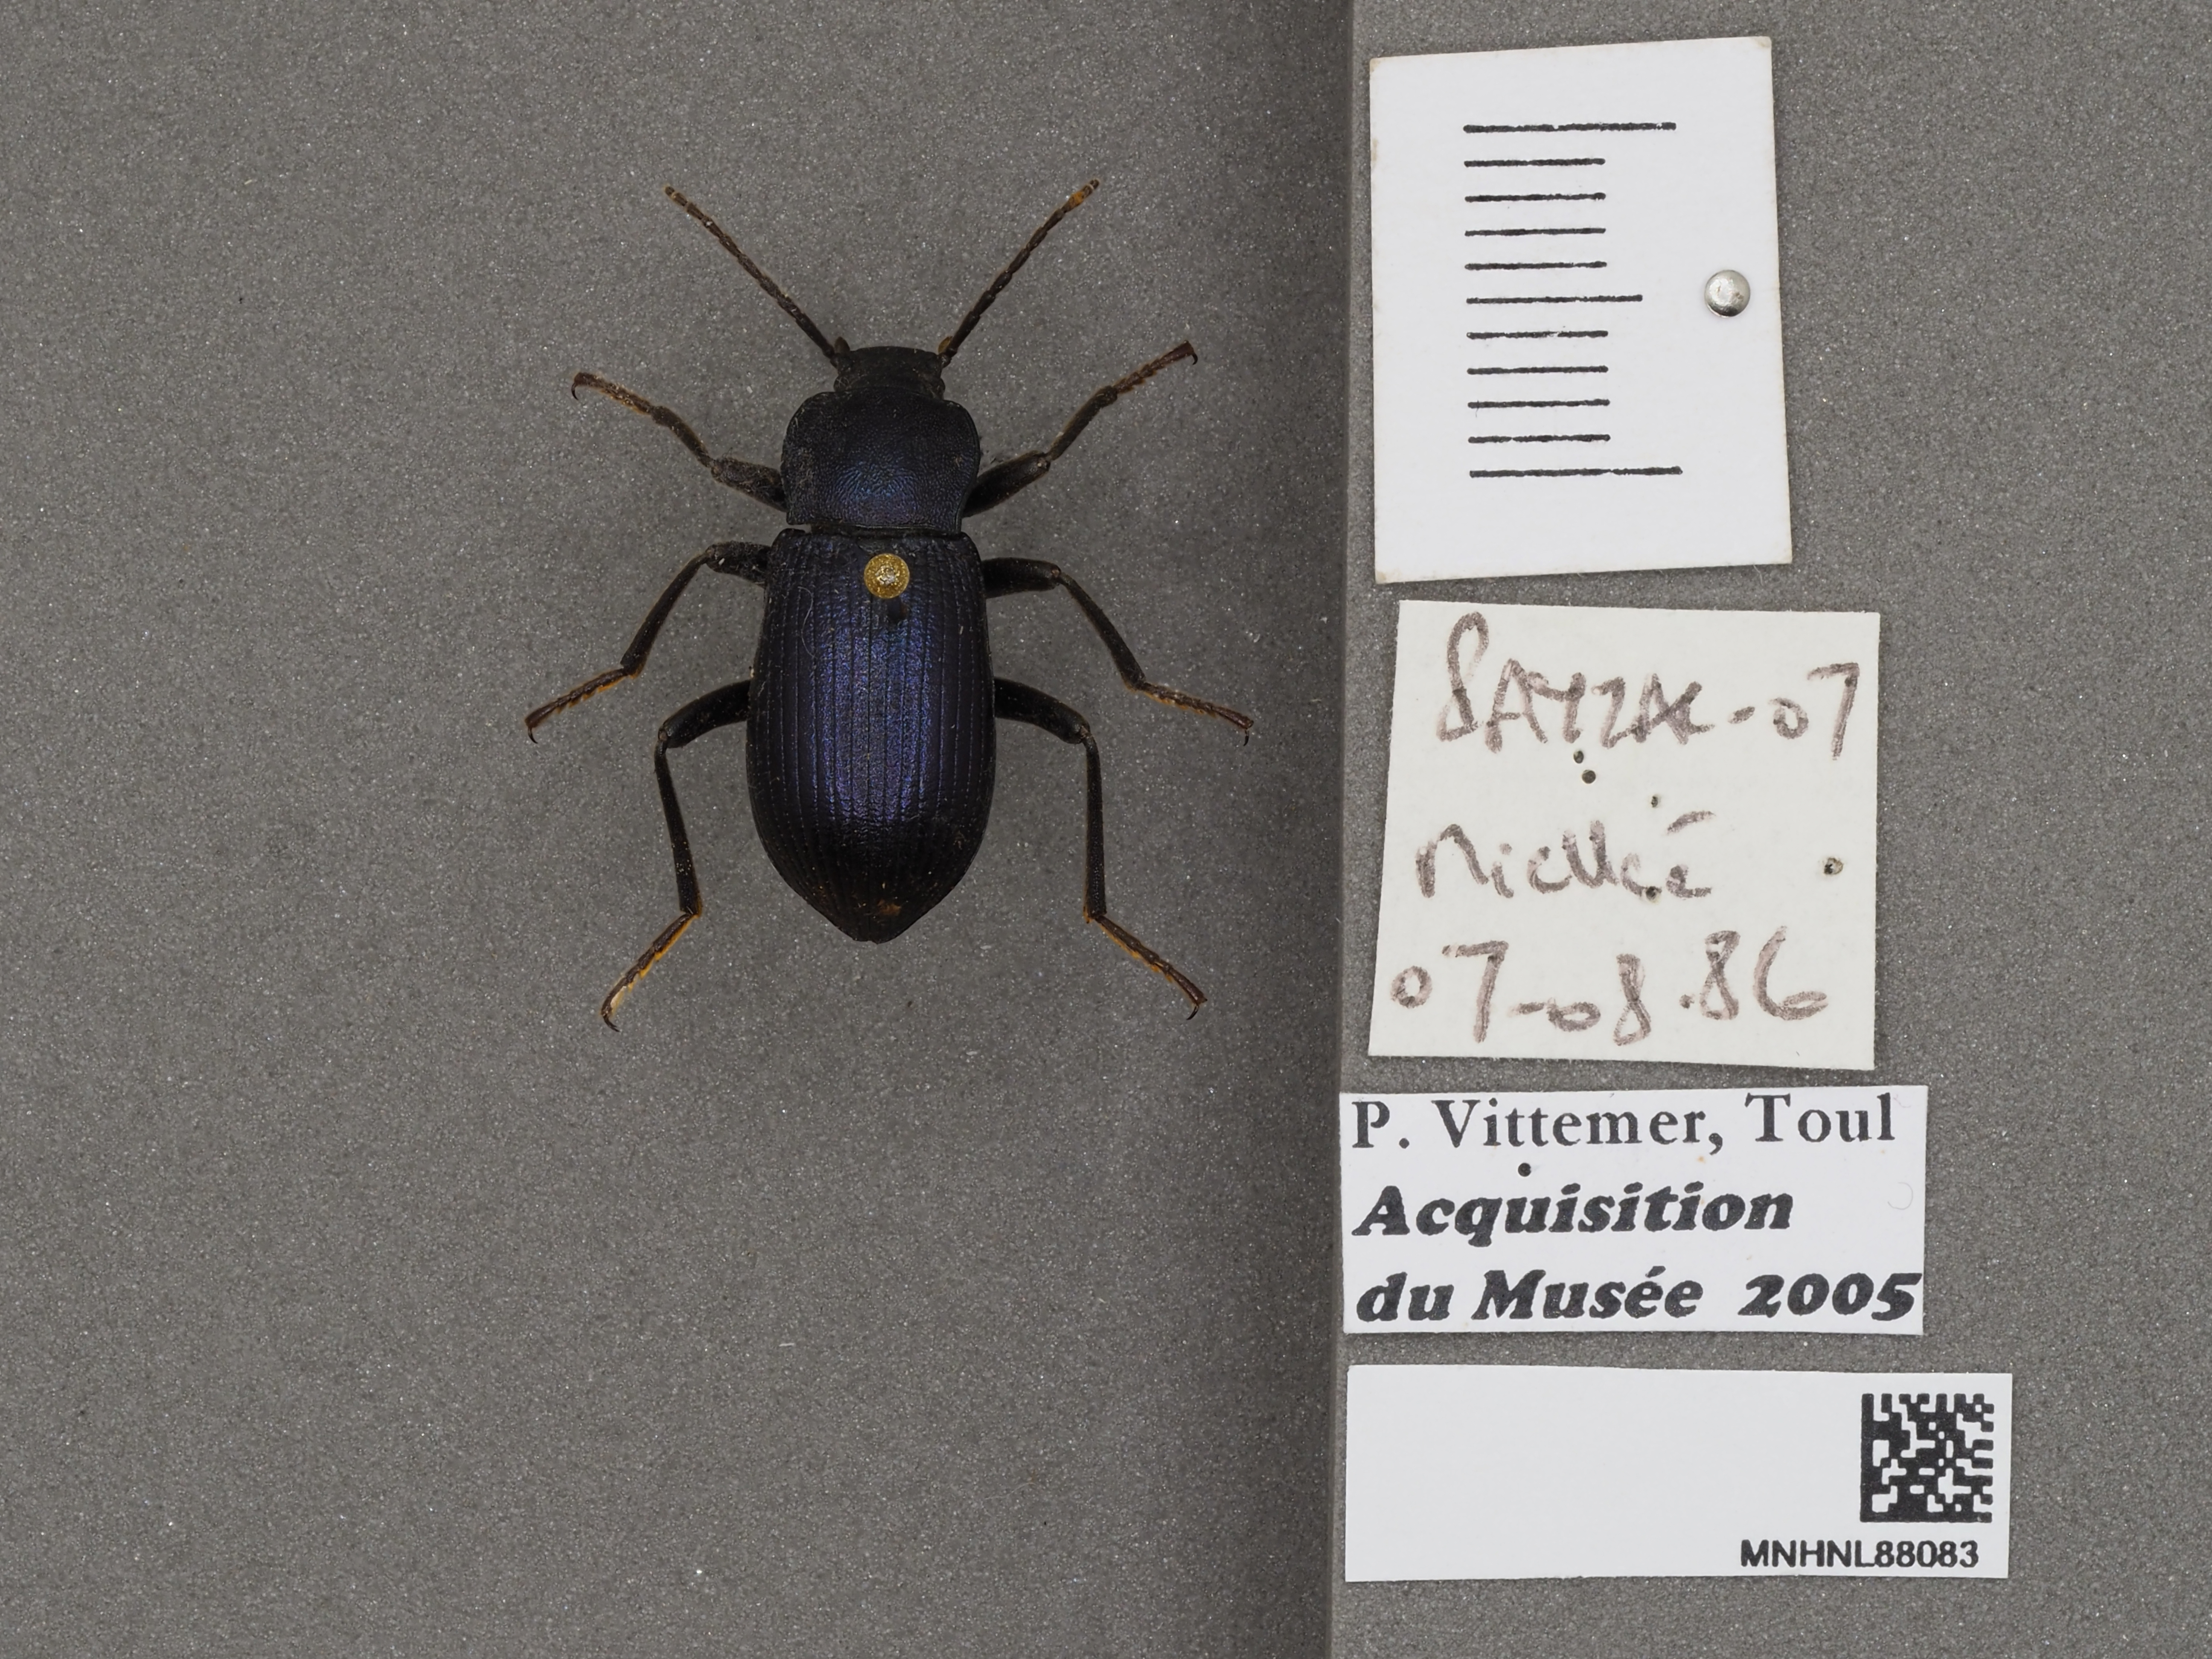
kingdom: Animalia
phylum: Arthropoda
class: Insecta
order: Coleoptera
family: Tenebrionidae
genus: Helops
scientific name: Helops rossii
